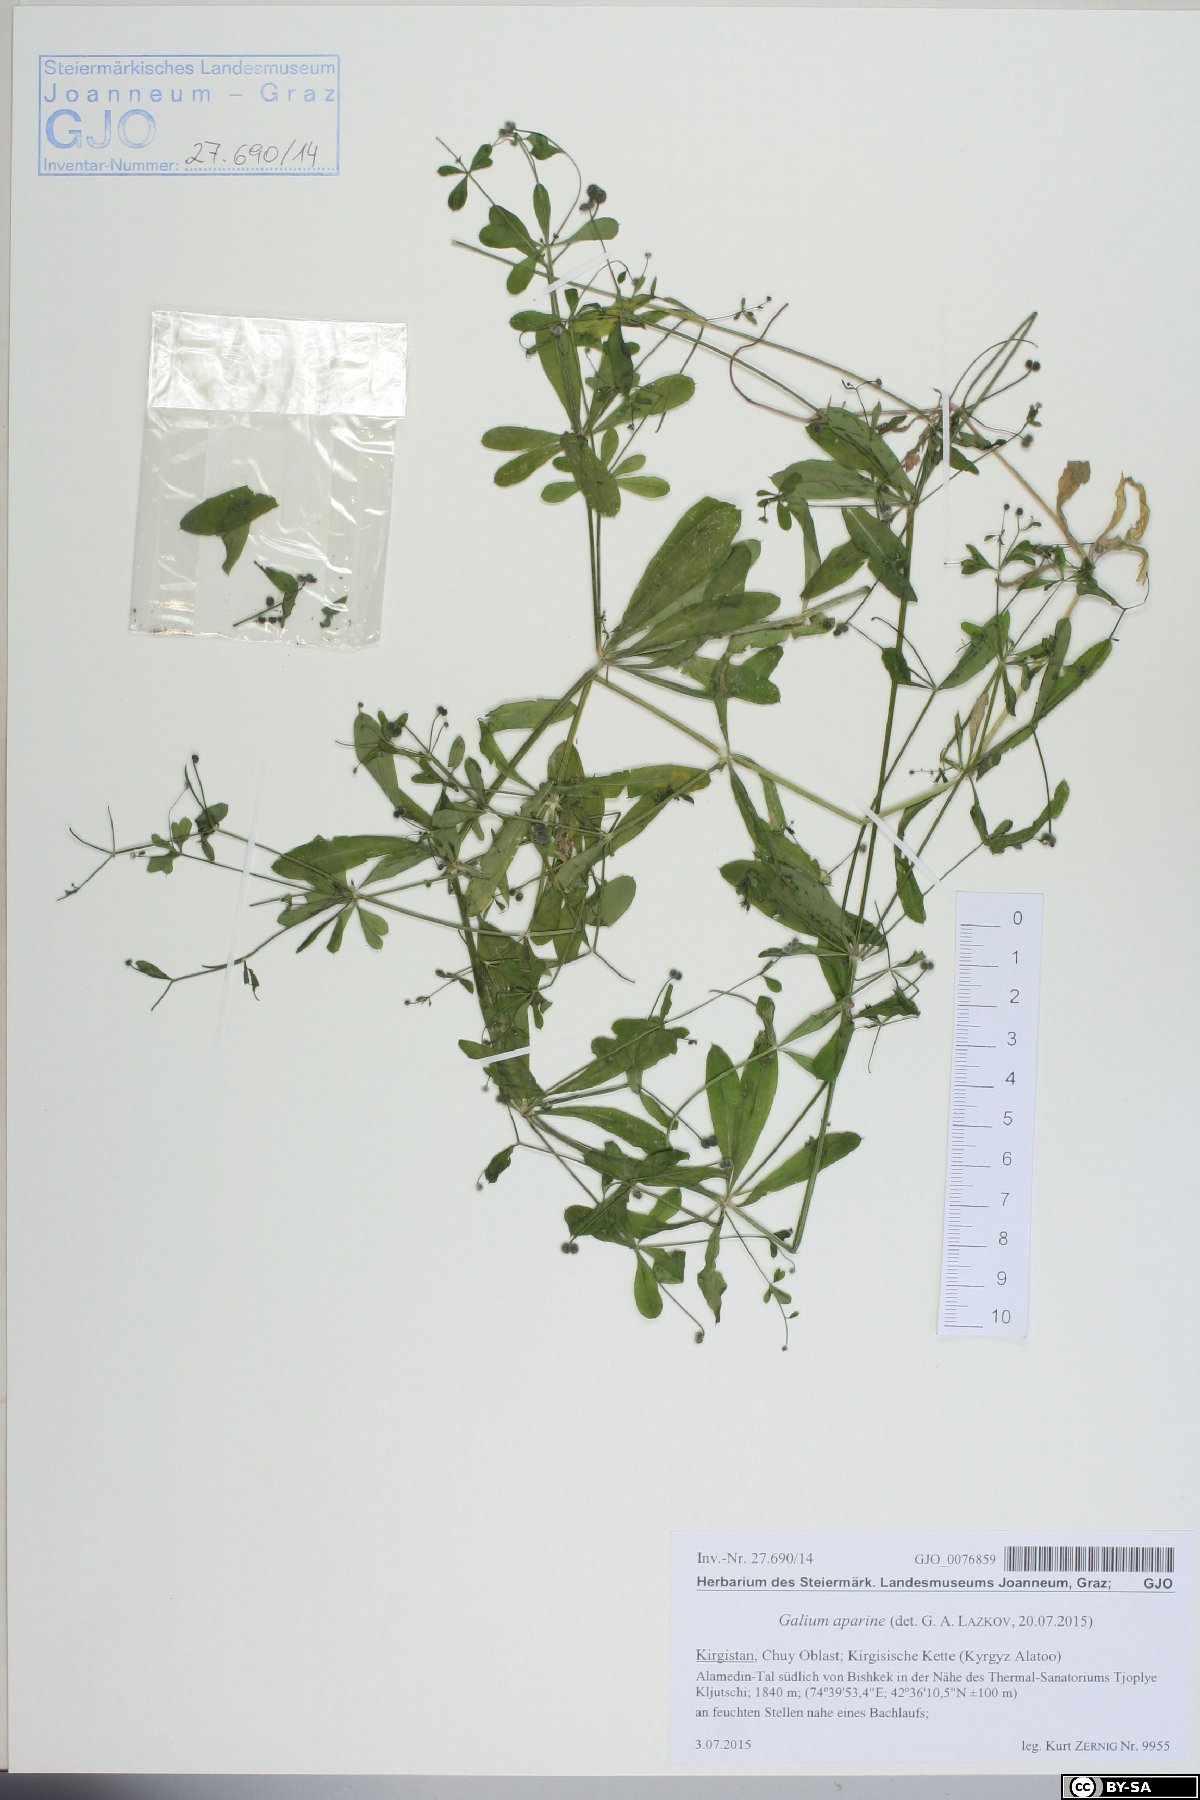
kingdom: Plantae
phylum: Tracheophyta
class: Magnoliopsida
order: Gentianales
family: Rubiaceae
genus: Galium
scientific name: Galium aparine
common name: Cleavers
